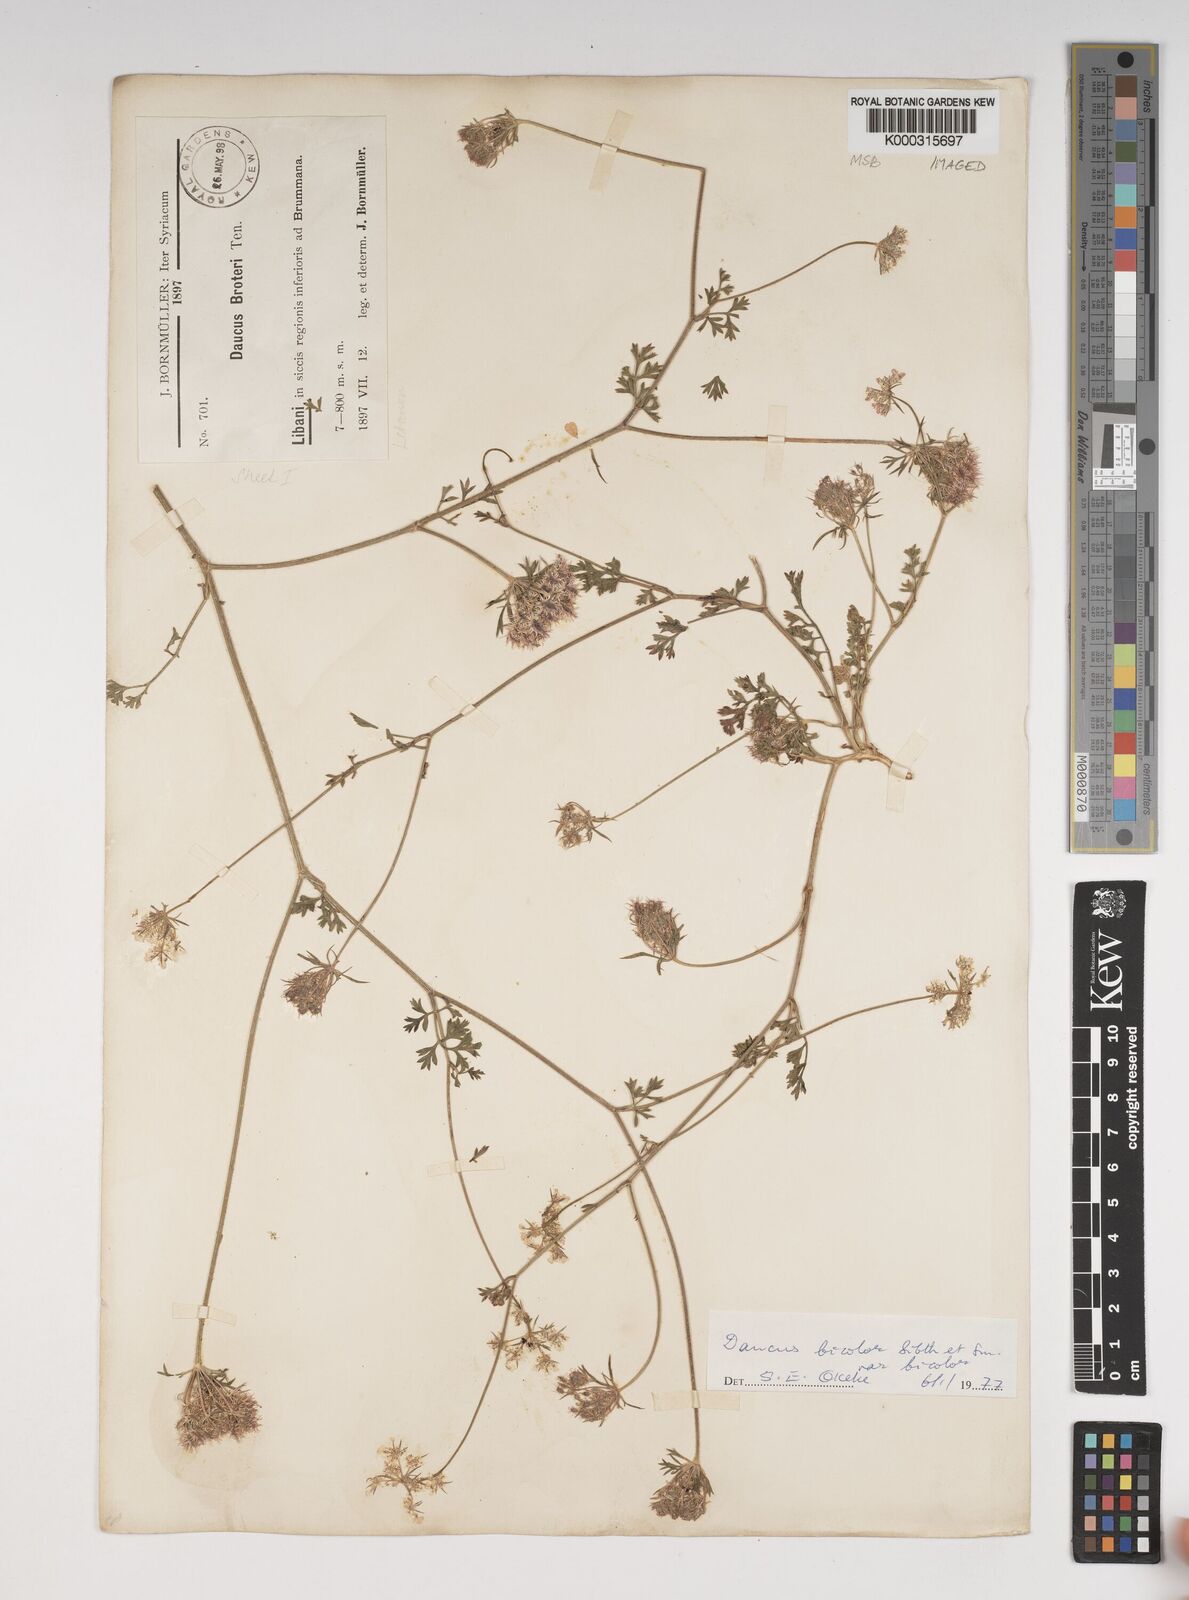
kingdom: Plantae
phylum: Tracheophyta
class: Magnoliopsida
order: Apiales
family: Apiaceae
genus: Daucus
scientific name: Daucus
